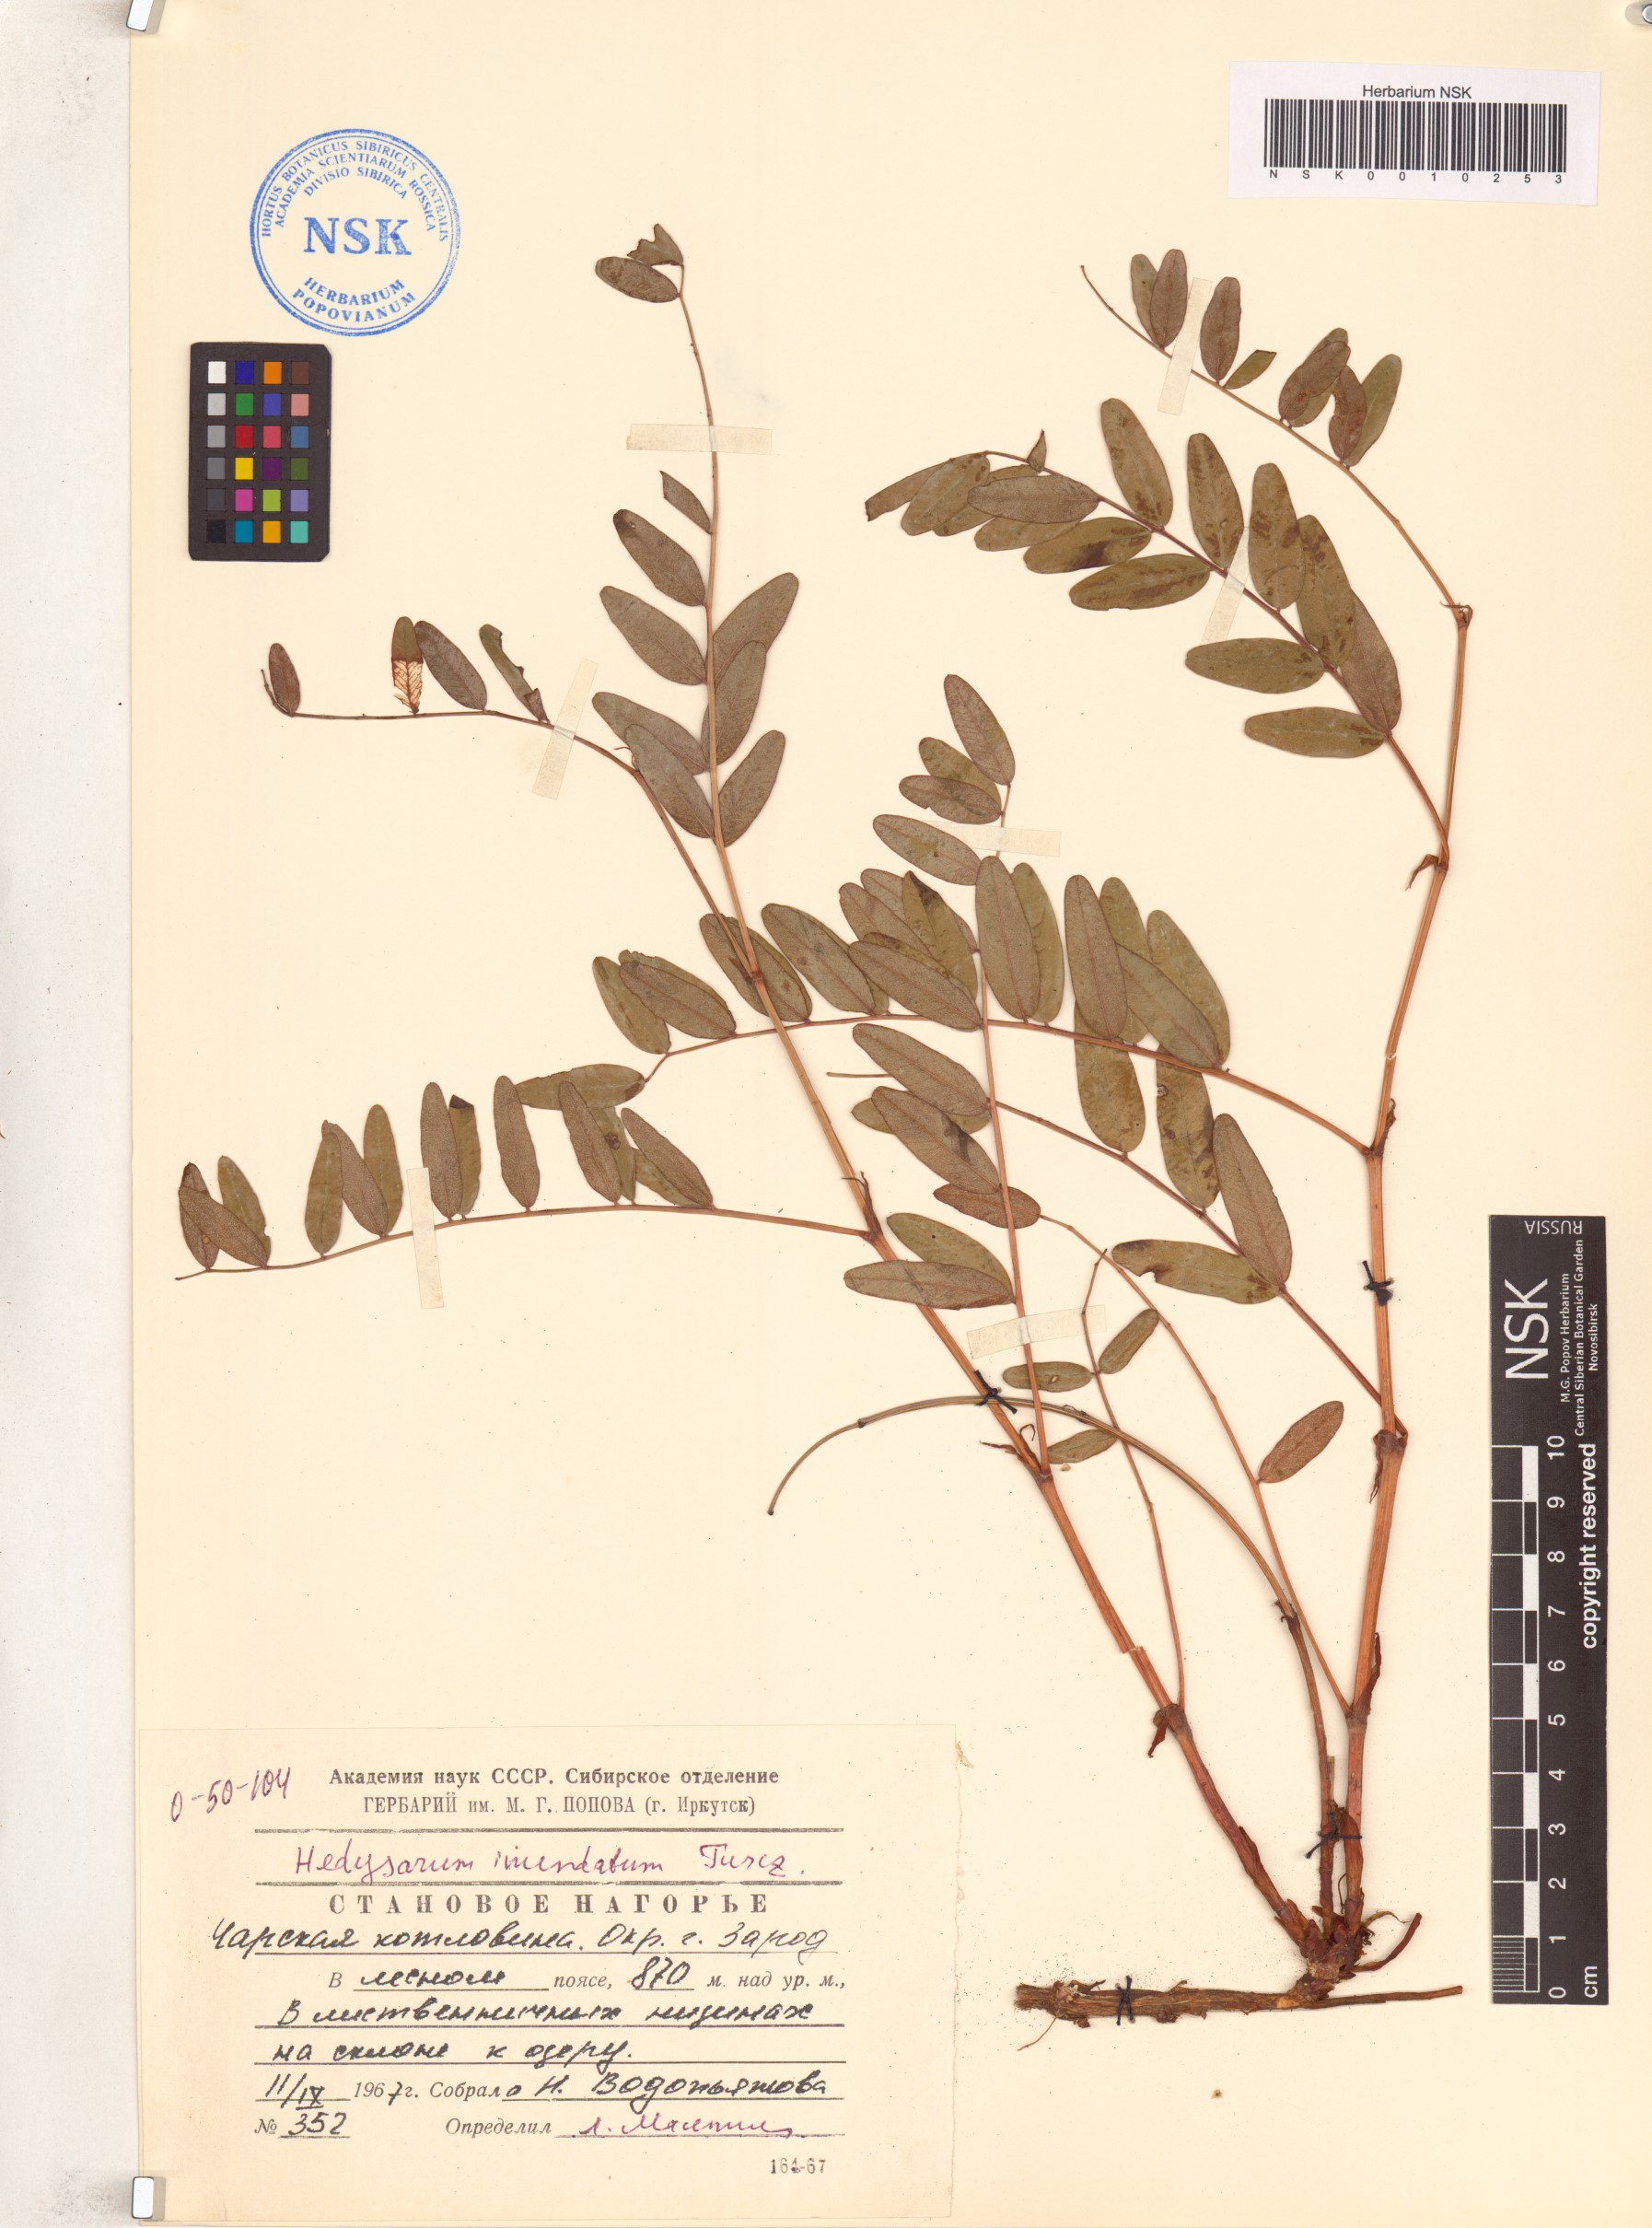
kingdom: Plantae
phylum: Tracheophyta
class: Magnoliopsida
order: Fabales
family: Fabaceae
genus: Hedysarum
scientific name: Hedysarum inundatum
